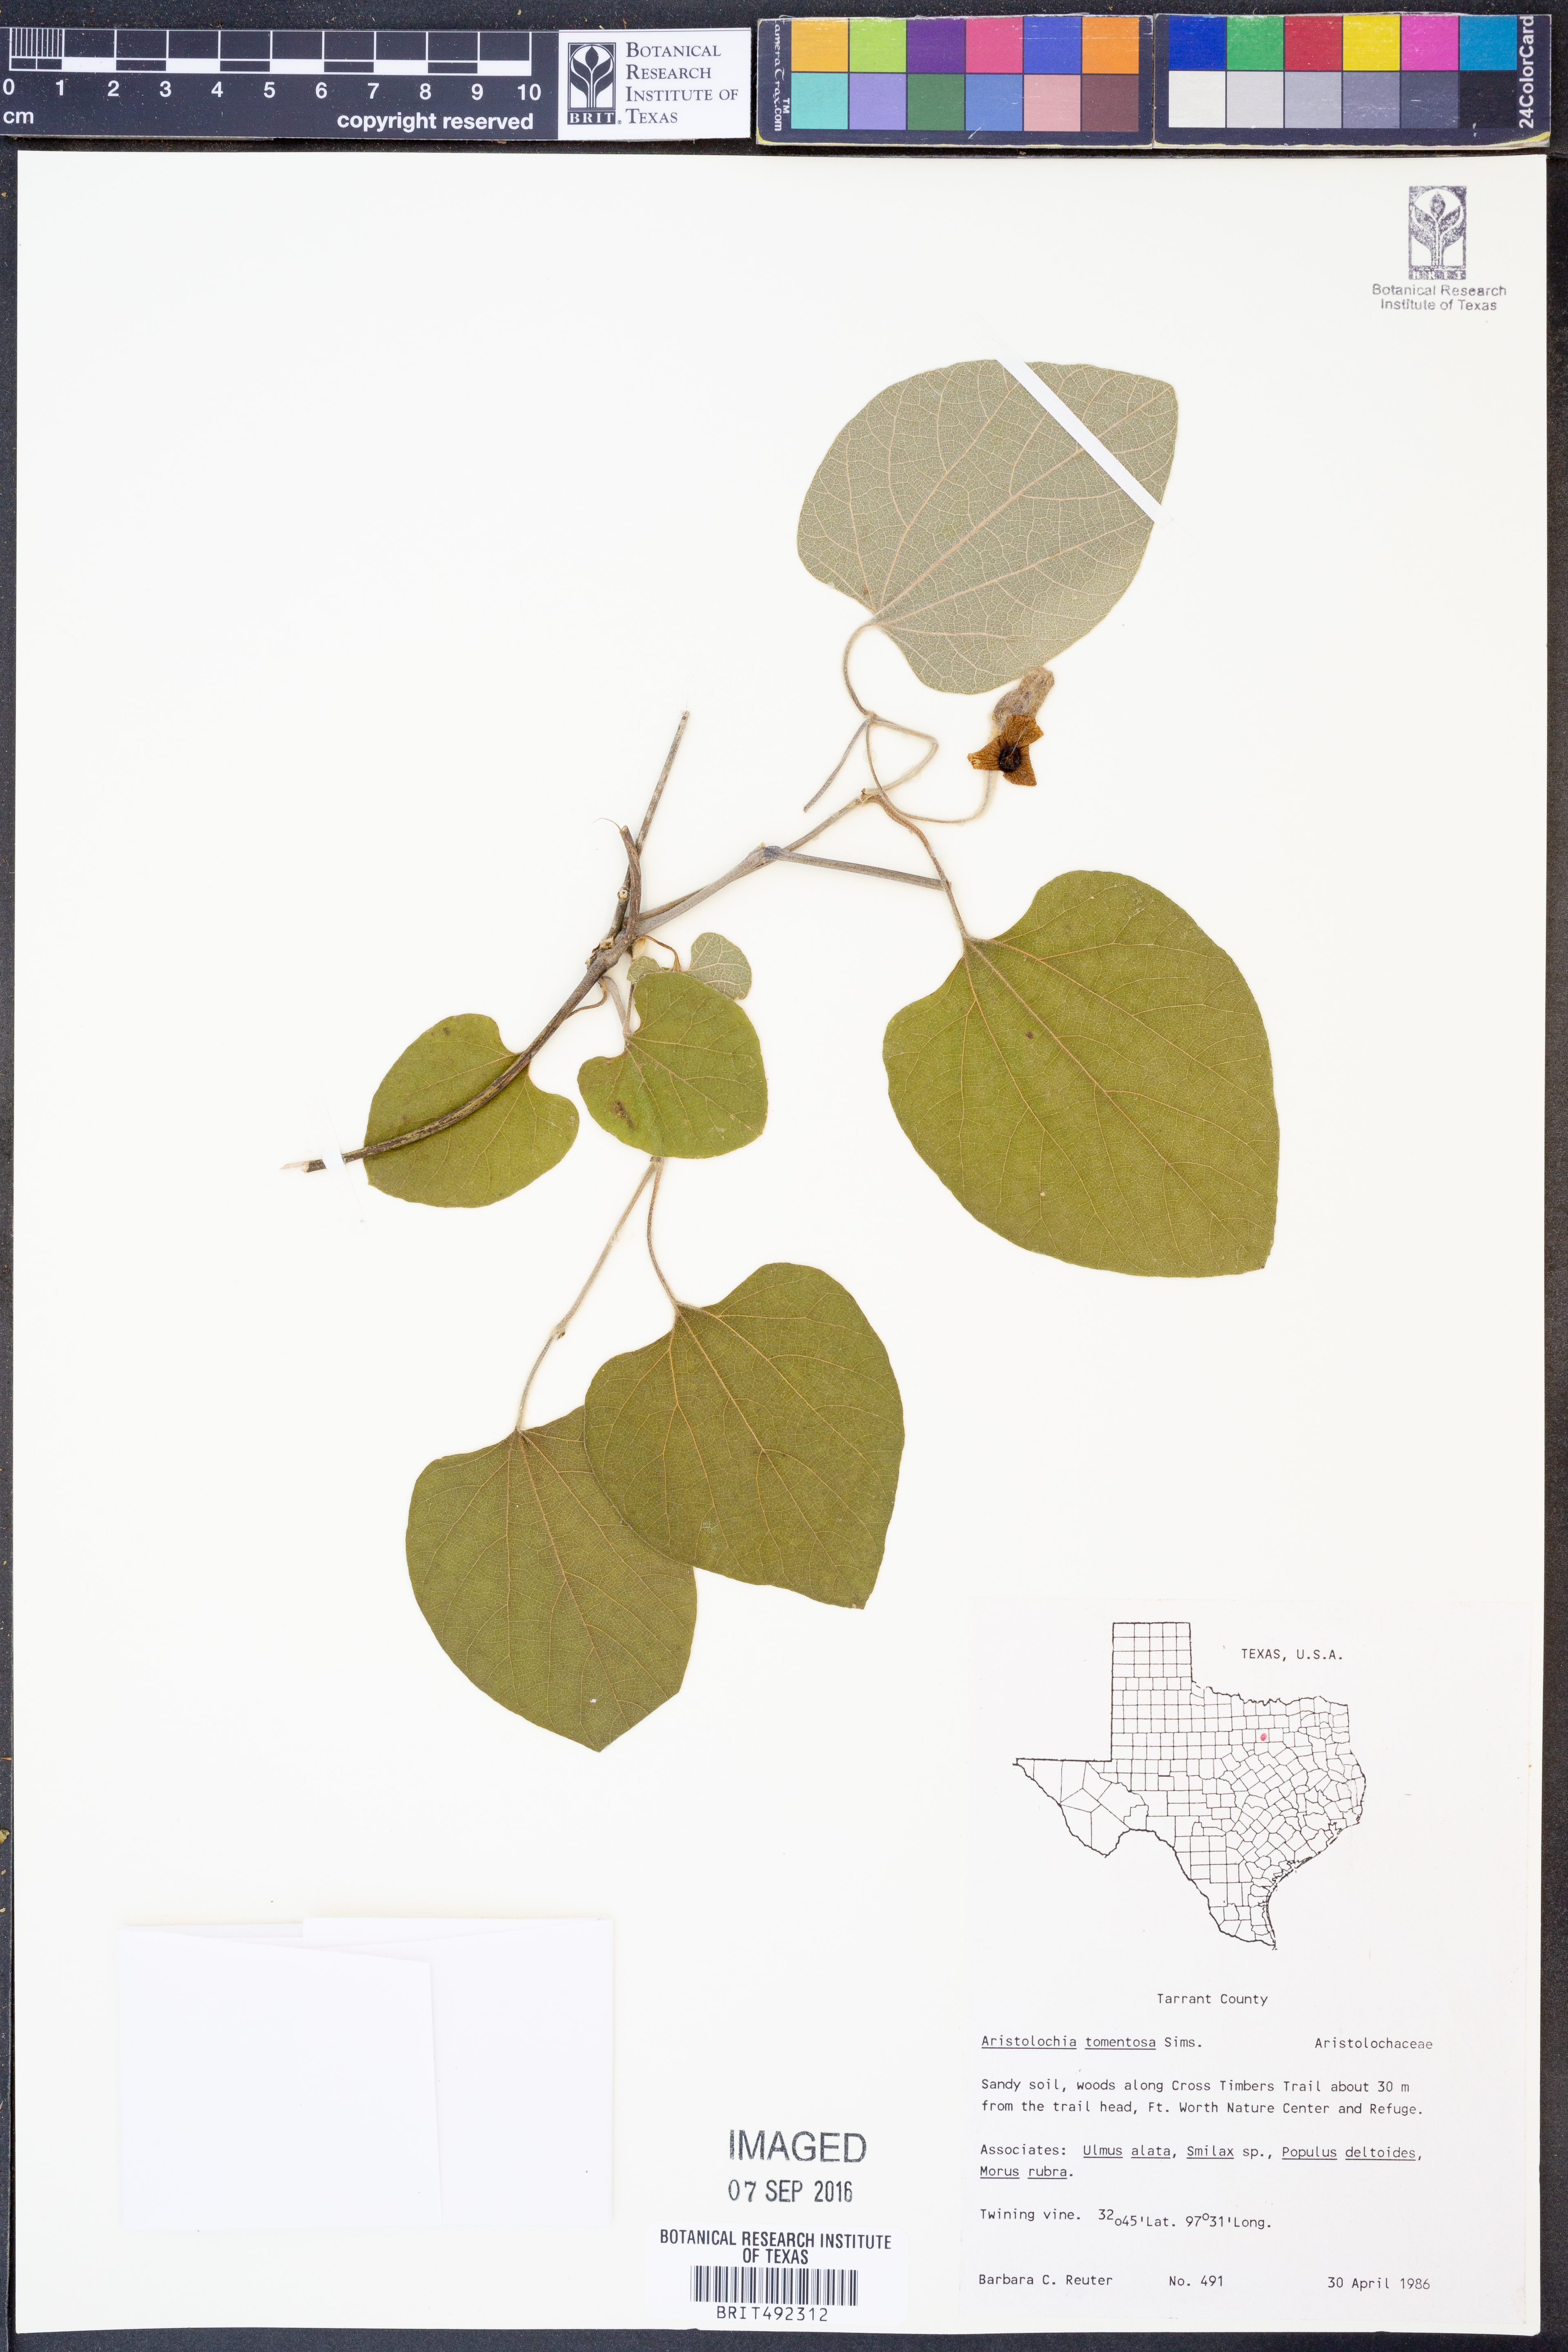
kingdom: Plantae
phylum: Tracheophyta
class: Magnoliopsida
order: Piperales
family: Aristolochiaceae
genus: Isotrema
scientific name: Isotrema tomentosum
